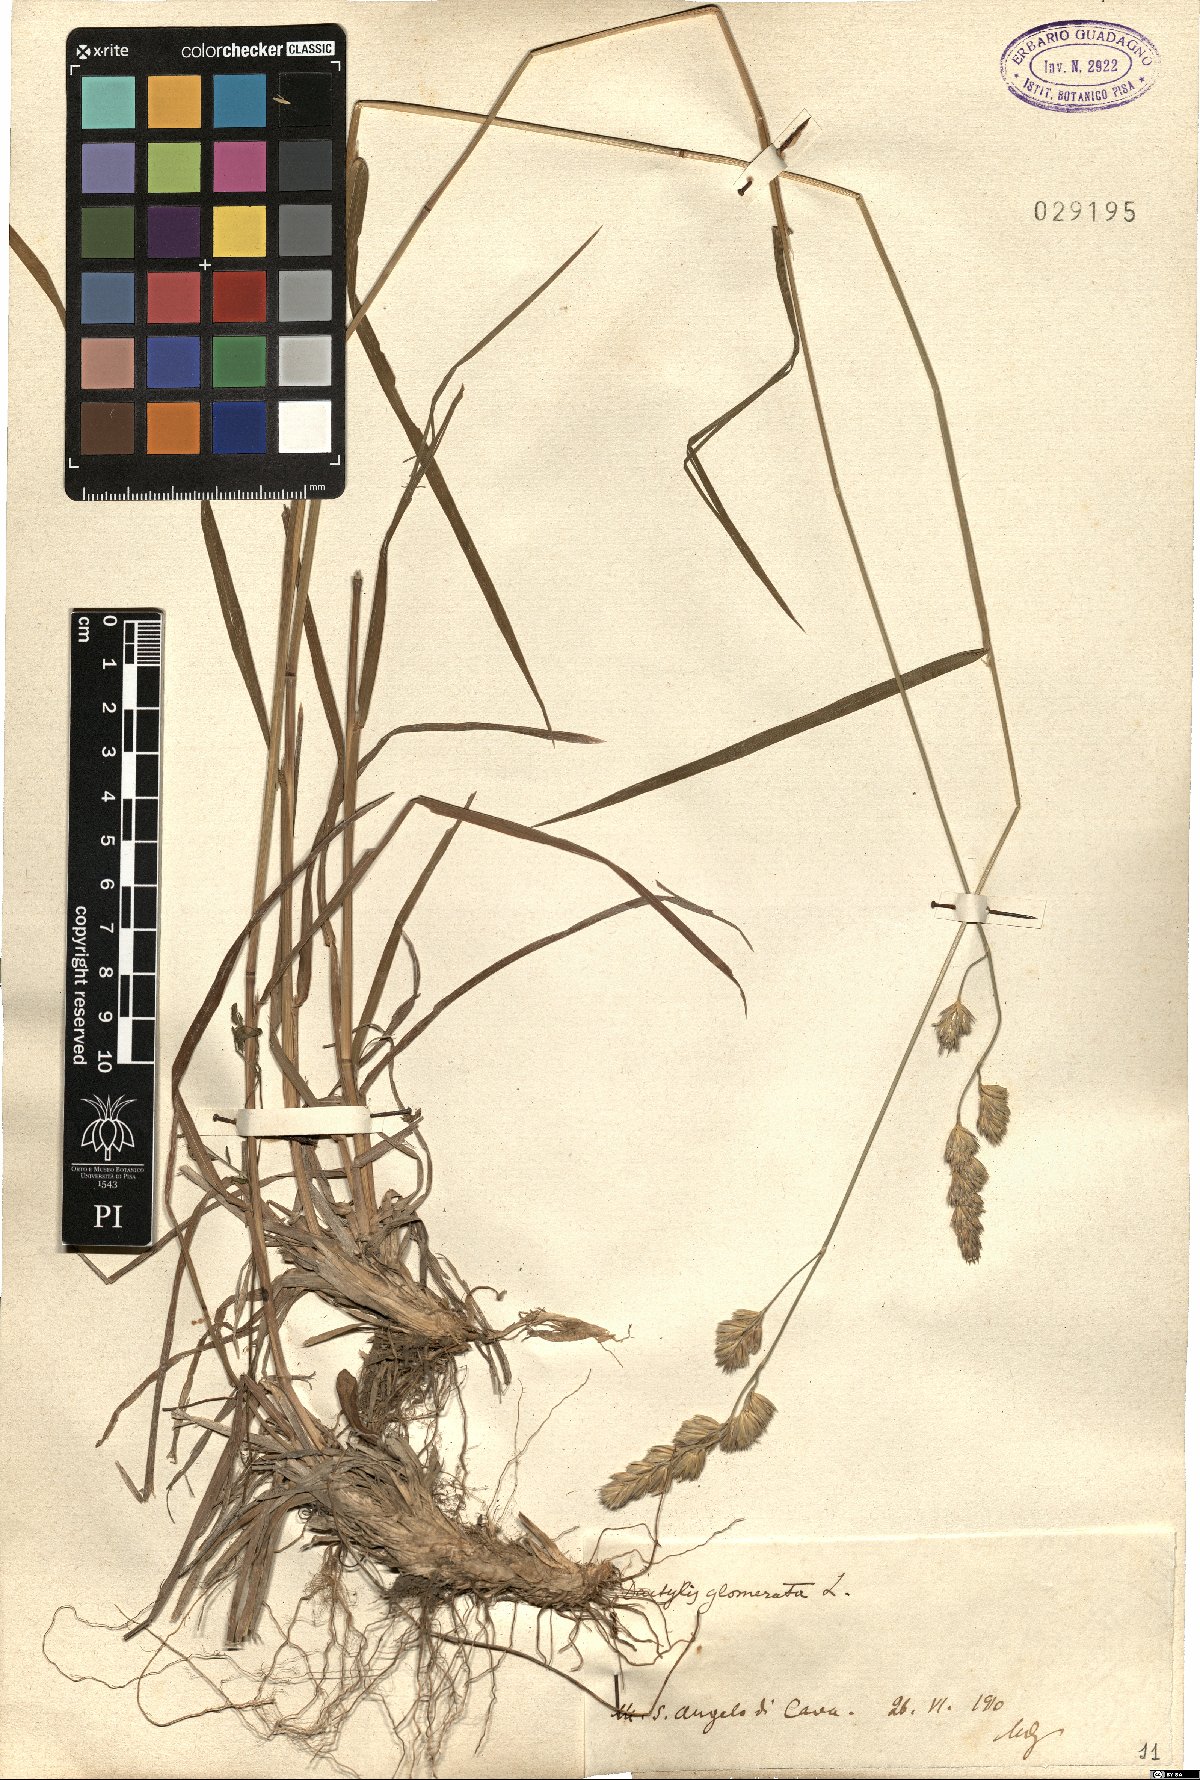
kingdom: Plantae
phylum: Tracheophyta
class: Liliopsida
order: Poales
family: Poaceae
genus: Dactylis
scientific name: Dactylis glomerata
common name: Orchardgrass
